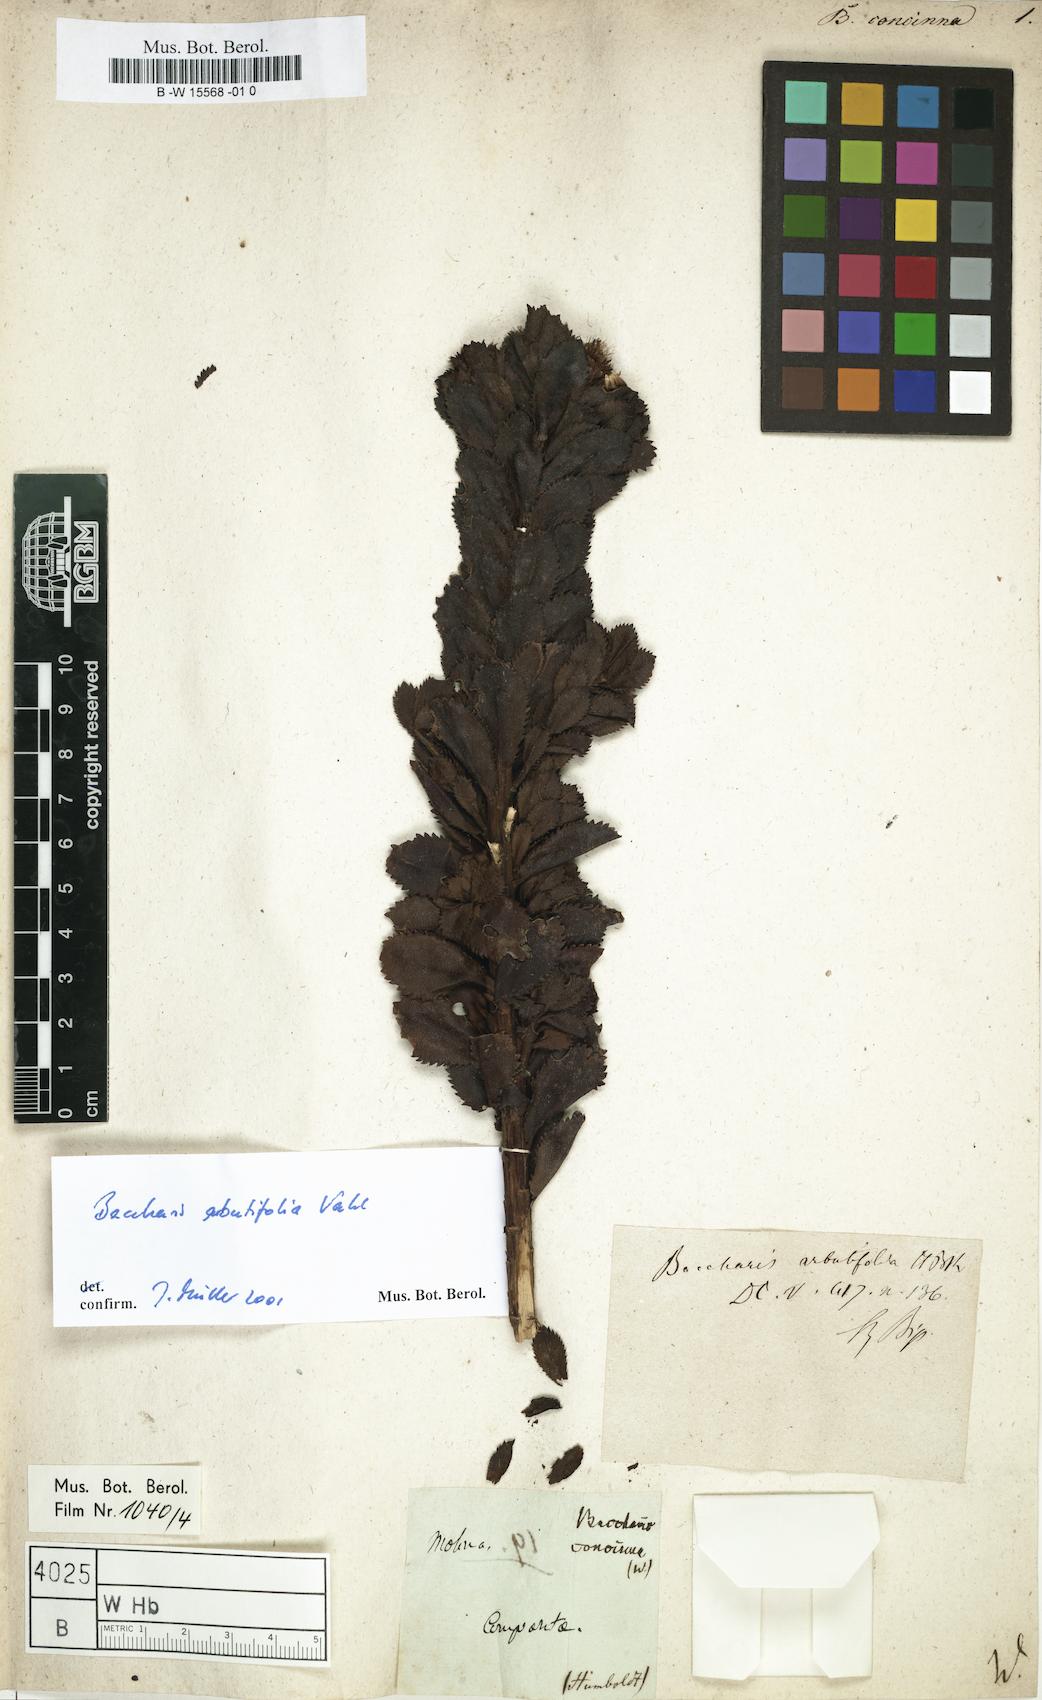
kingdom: Plantae
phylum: Tracheophyta
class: Magnoliopsida
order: Asterales
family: Asteraceae
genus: Baccharis
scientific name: Baccharis concinna
